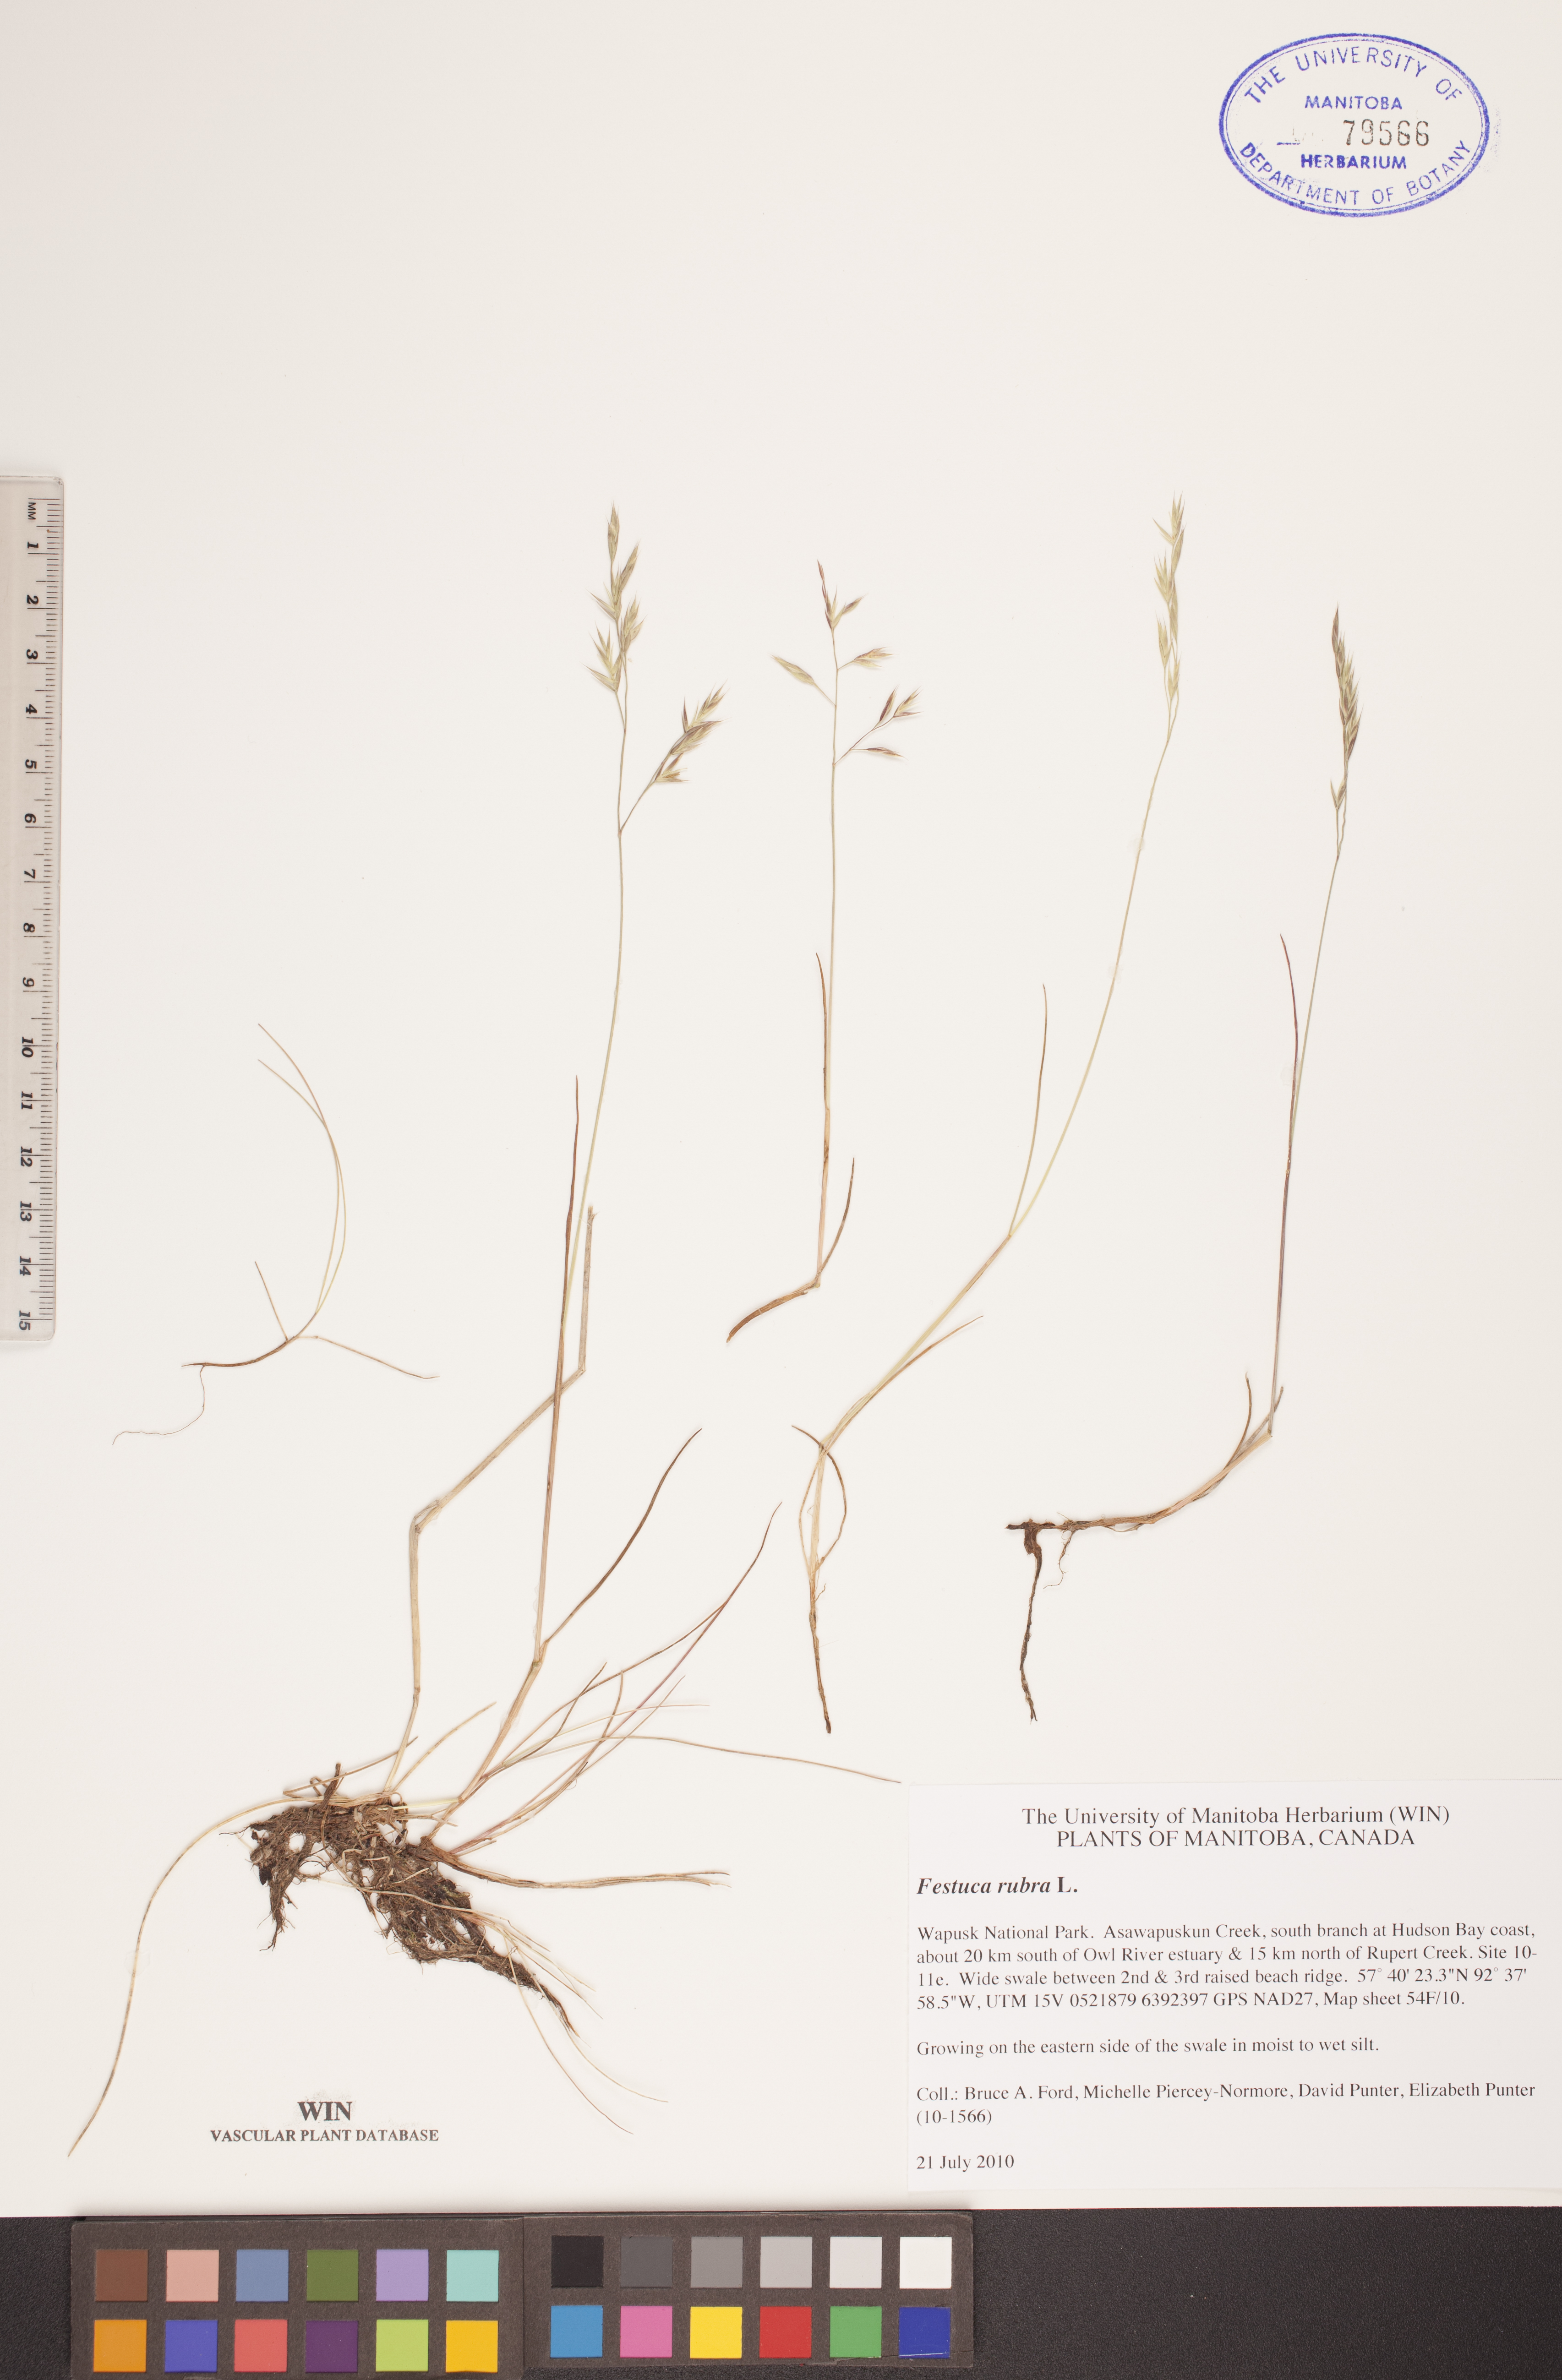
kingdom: Plantae
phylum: Tracheophyta
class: Liliopsida
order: Poales
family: Poaceae
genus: Festuca
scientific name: Festuca rubra
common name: Red fescue
